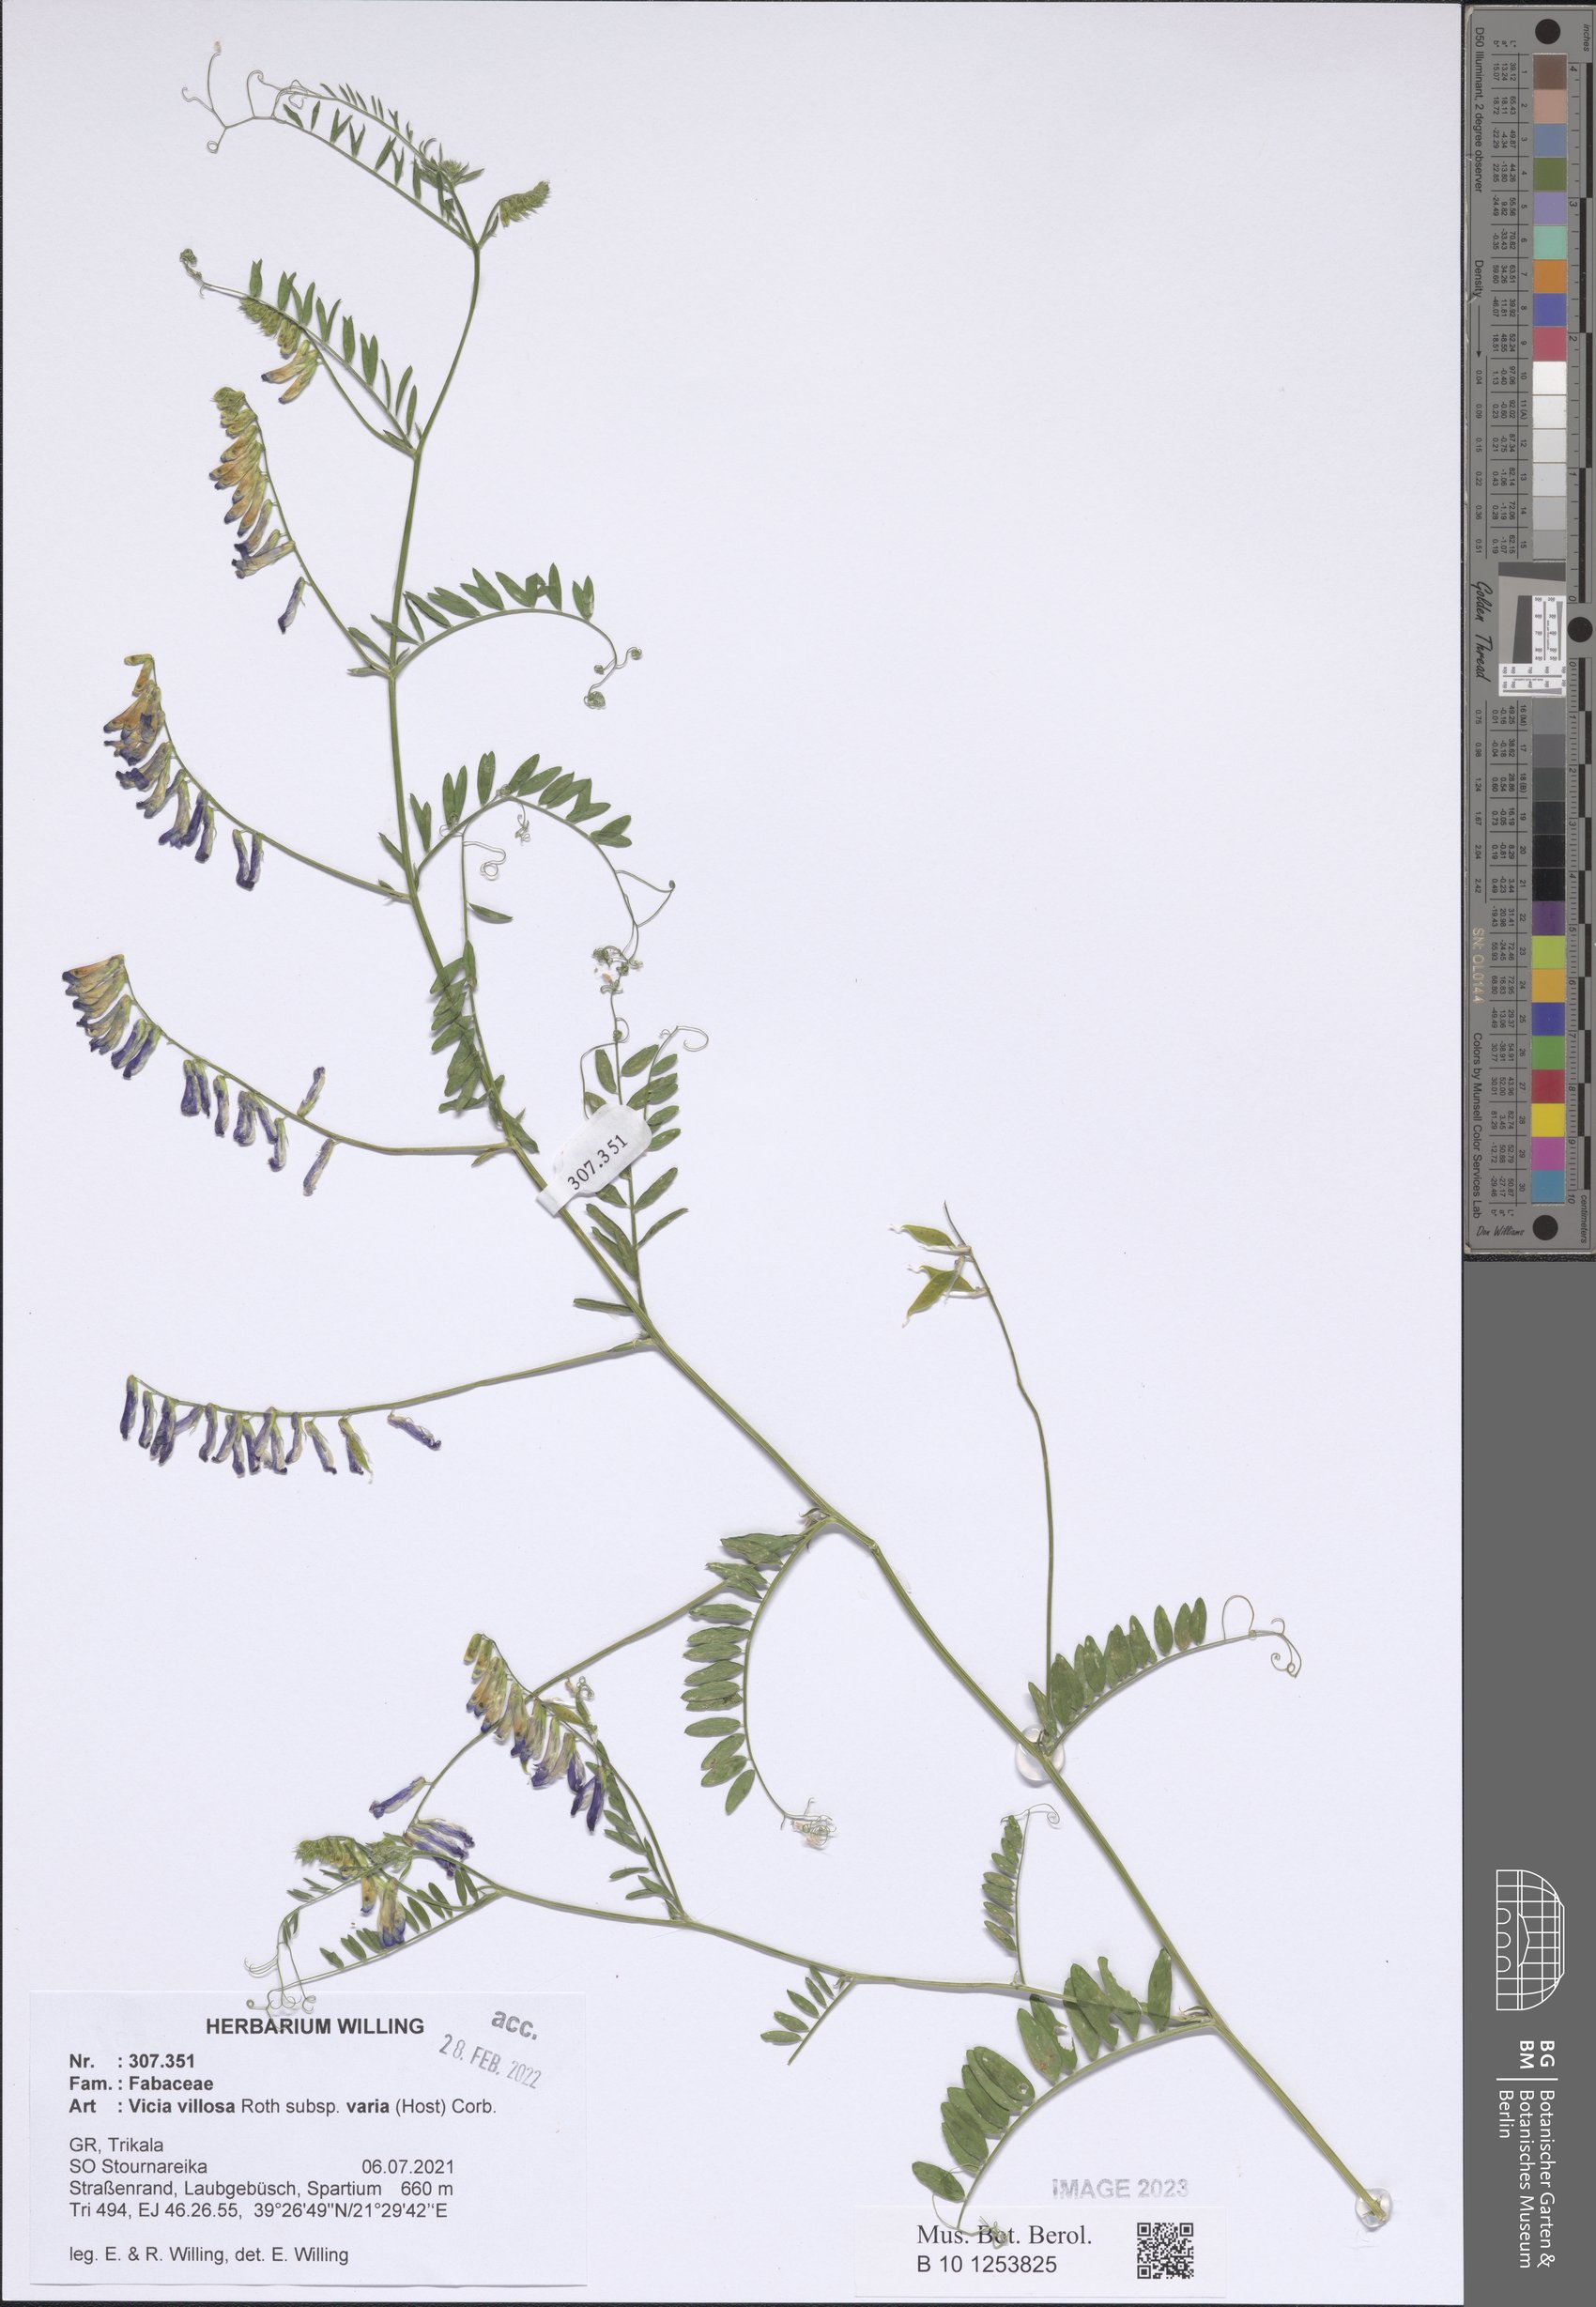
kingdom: Plantae
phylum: Tracheophyta
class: Magnoliopsida
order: Fabales
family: Fabaceae
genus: Vicia
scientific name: Vicia villosa
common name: Fodder vetch
